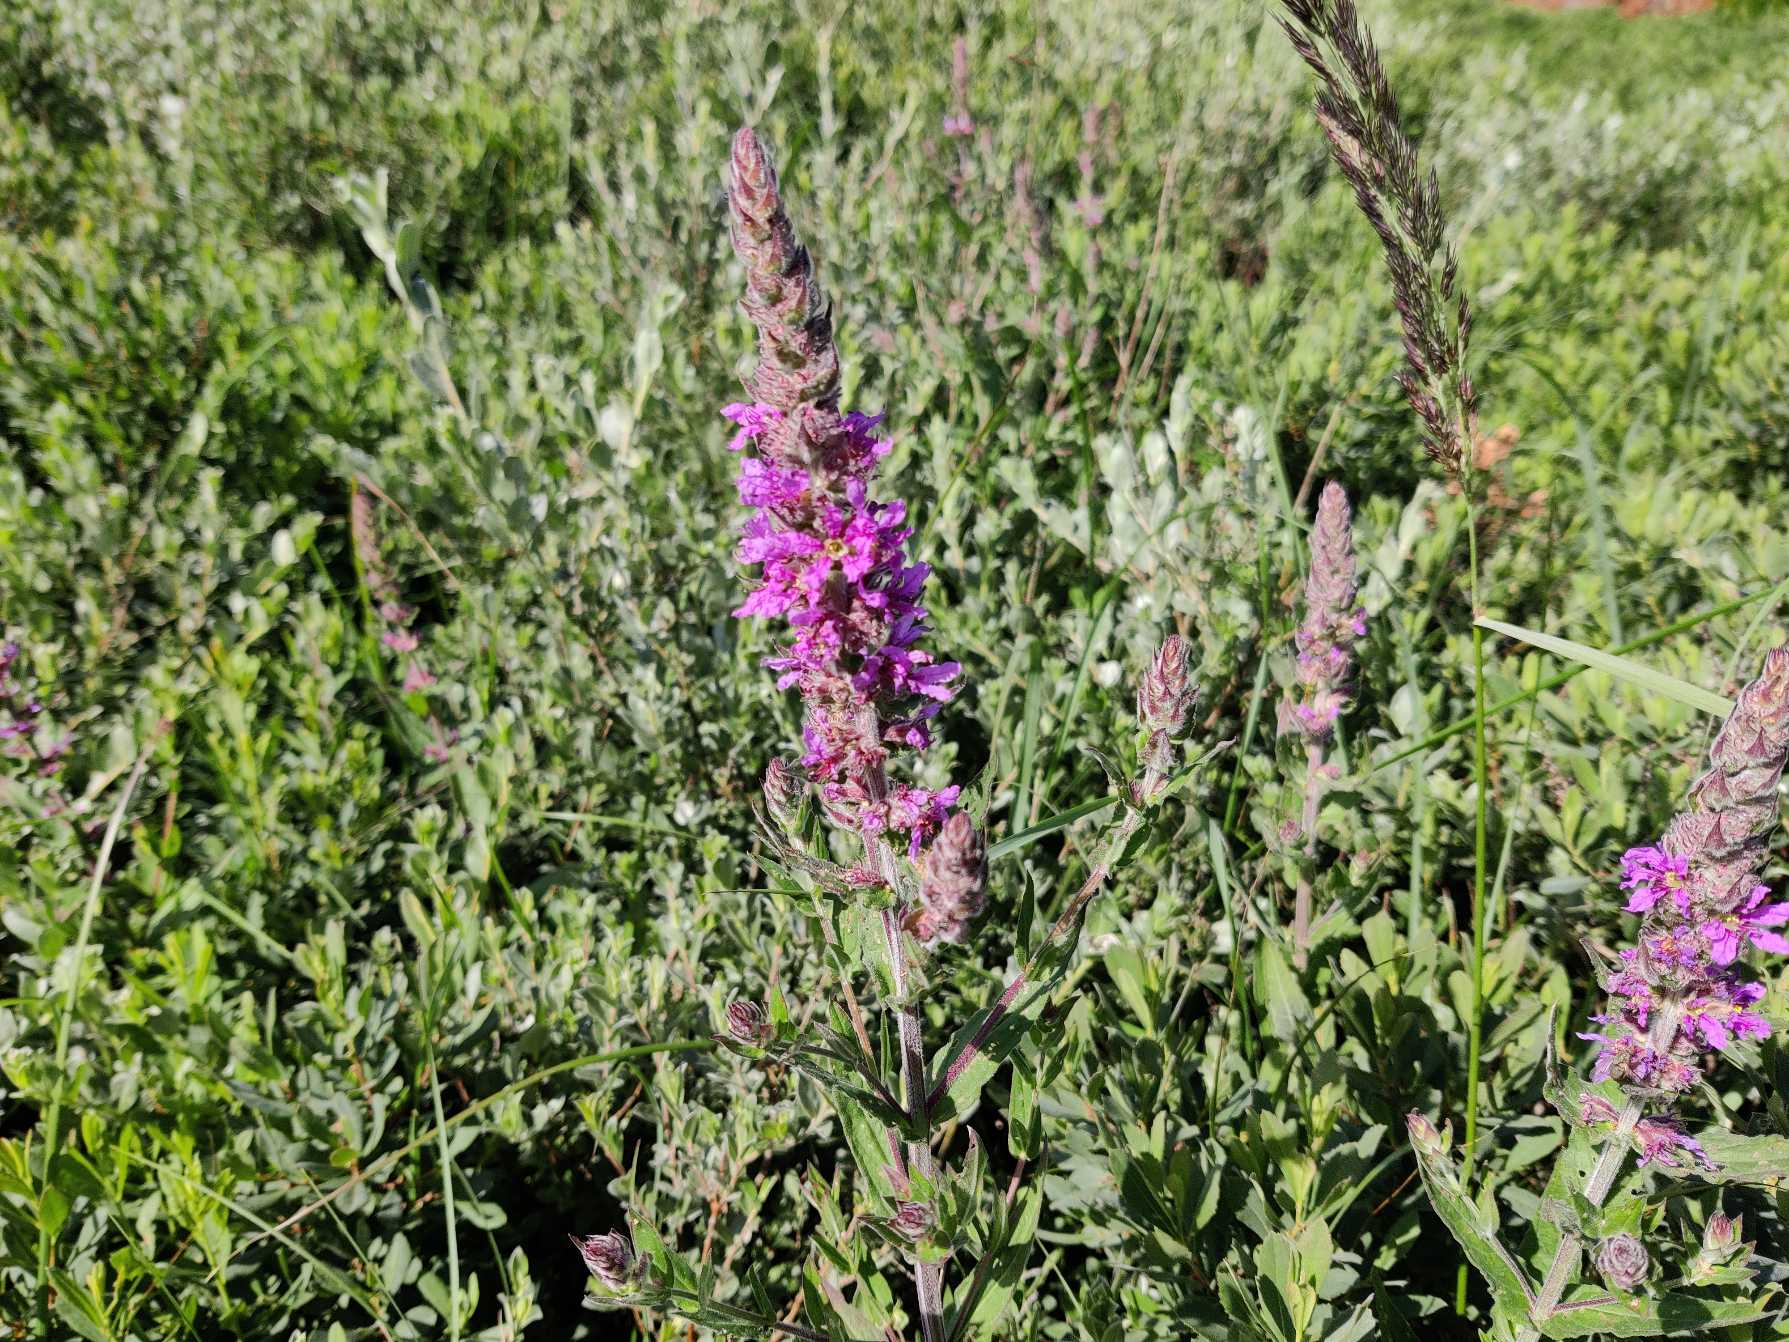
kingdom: Plantae
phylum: Tracheophyta
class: Magnoliopsida
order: Myrtales
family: Lythraceae
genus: Lythrum
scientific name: Lythrum salicaria
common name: Kattehale
